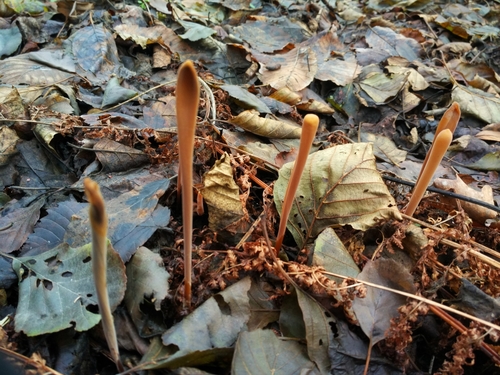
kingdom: Fungi
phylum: Basidiomycota
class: Agaricomycetes
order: Agaricales
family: Typhulaceae
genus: Typhula
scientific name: Typhula fistulosa
